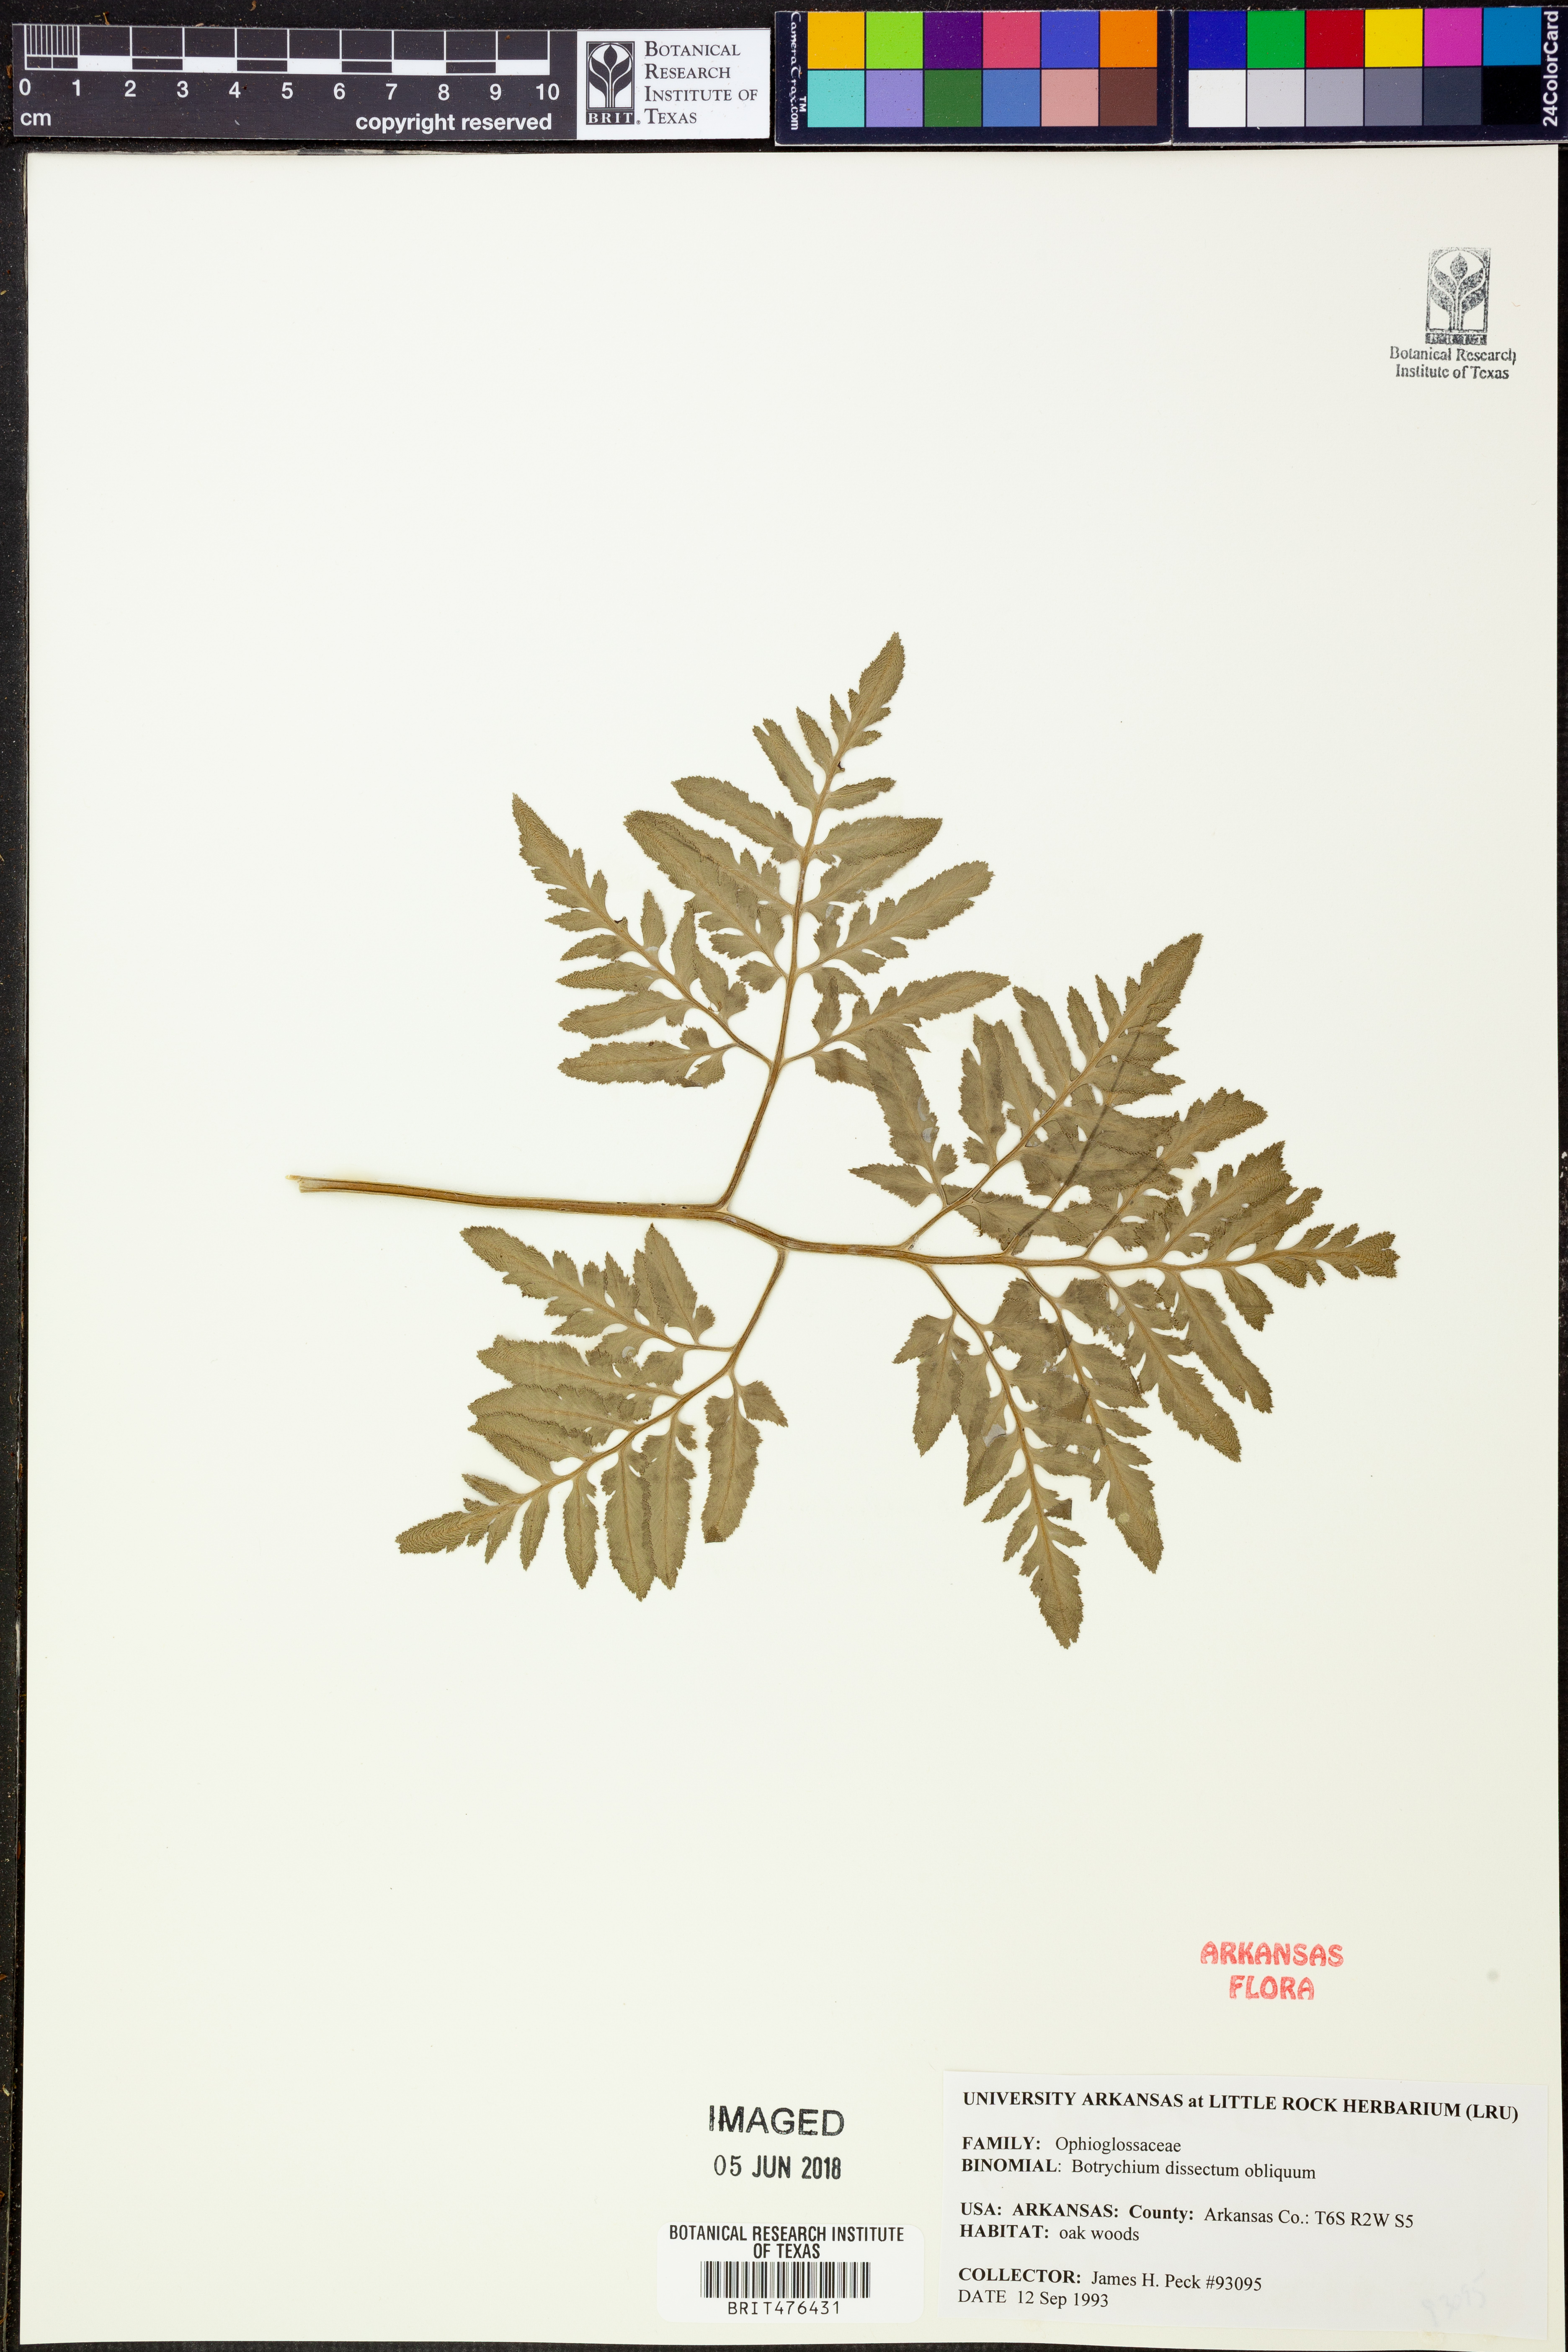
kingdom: Plantae
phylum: Tracheophyta
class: Polypodiopsida
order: Ophioglossales
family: Ophioglossaceae
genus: Sceptridium
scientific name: Sceptridium dissectum
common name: Cut-leaved grapefern
